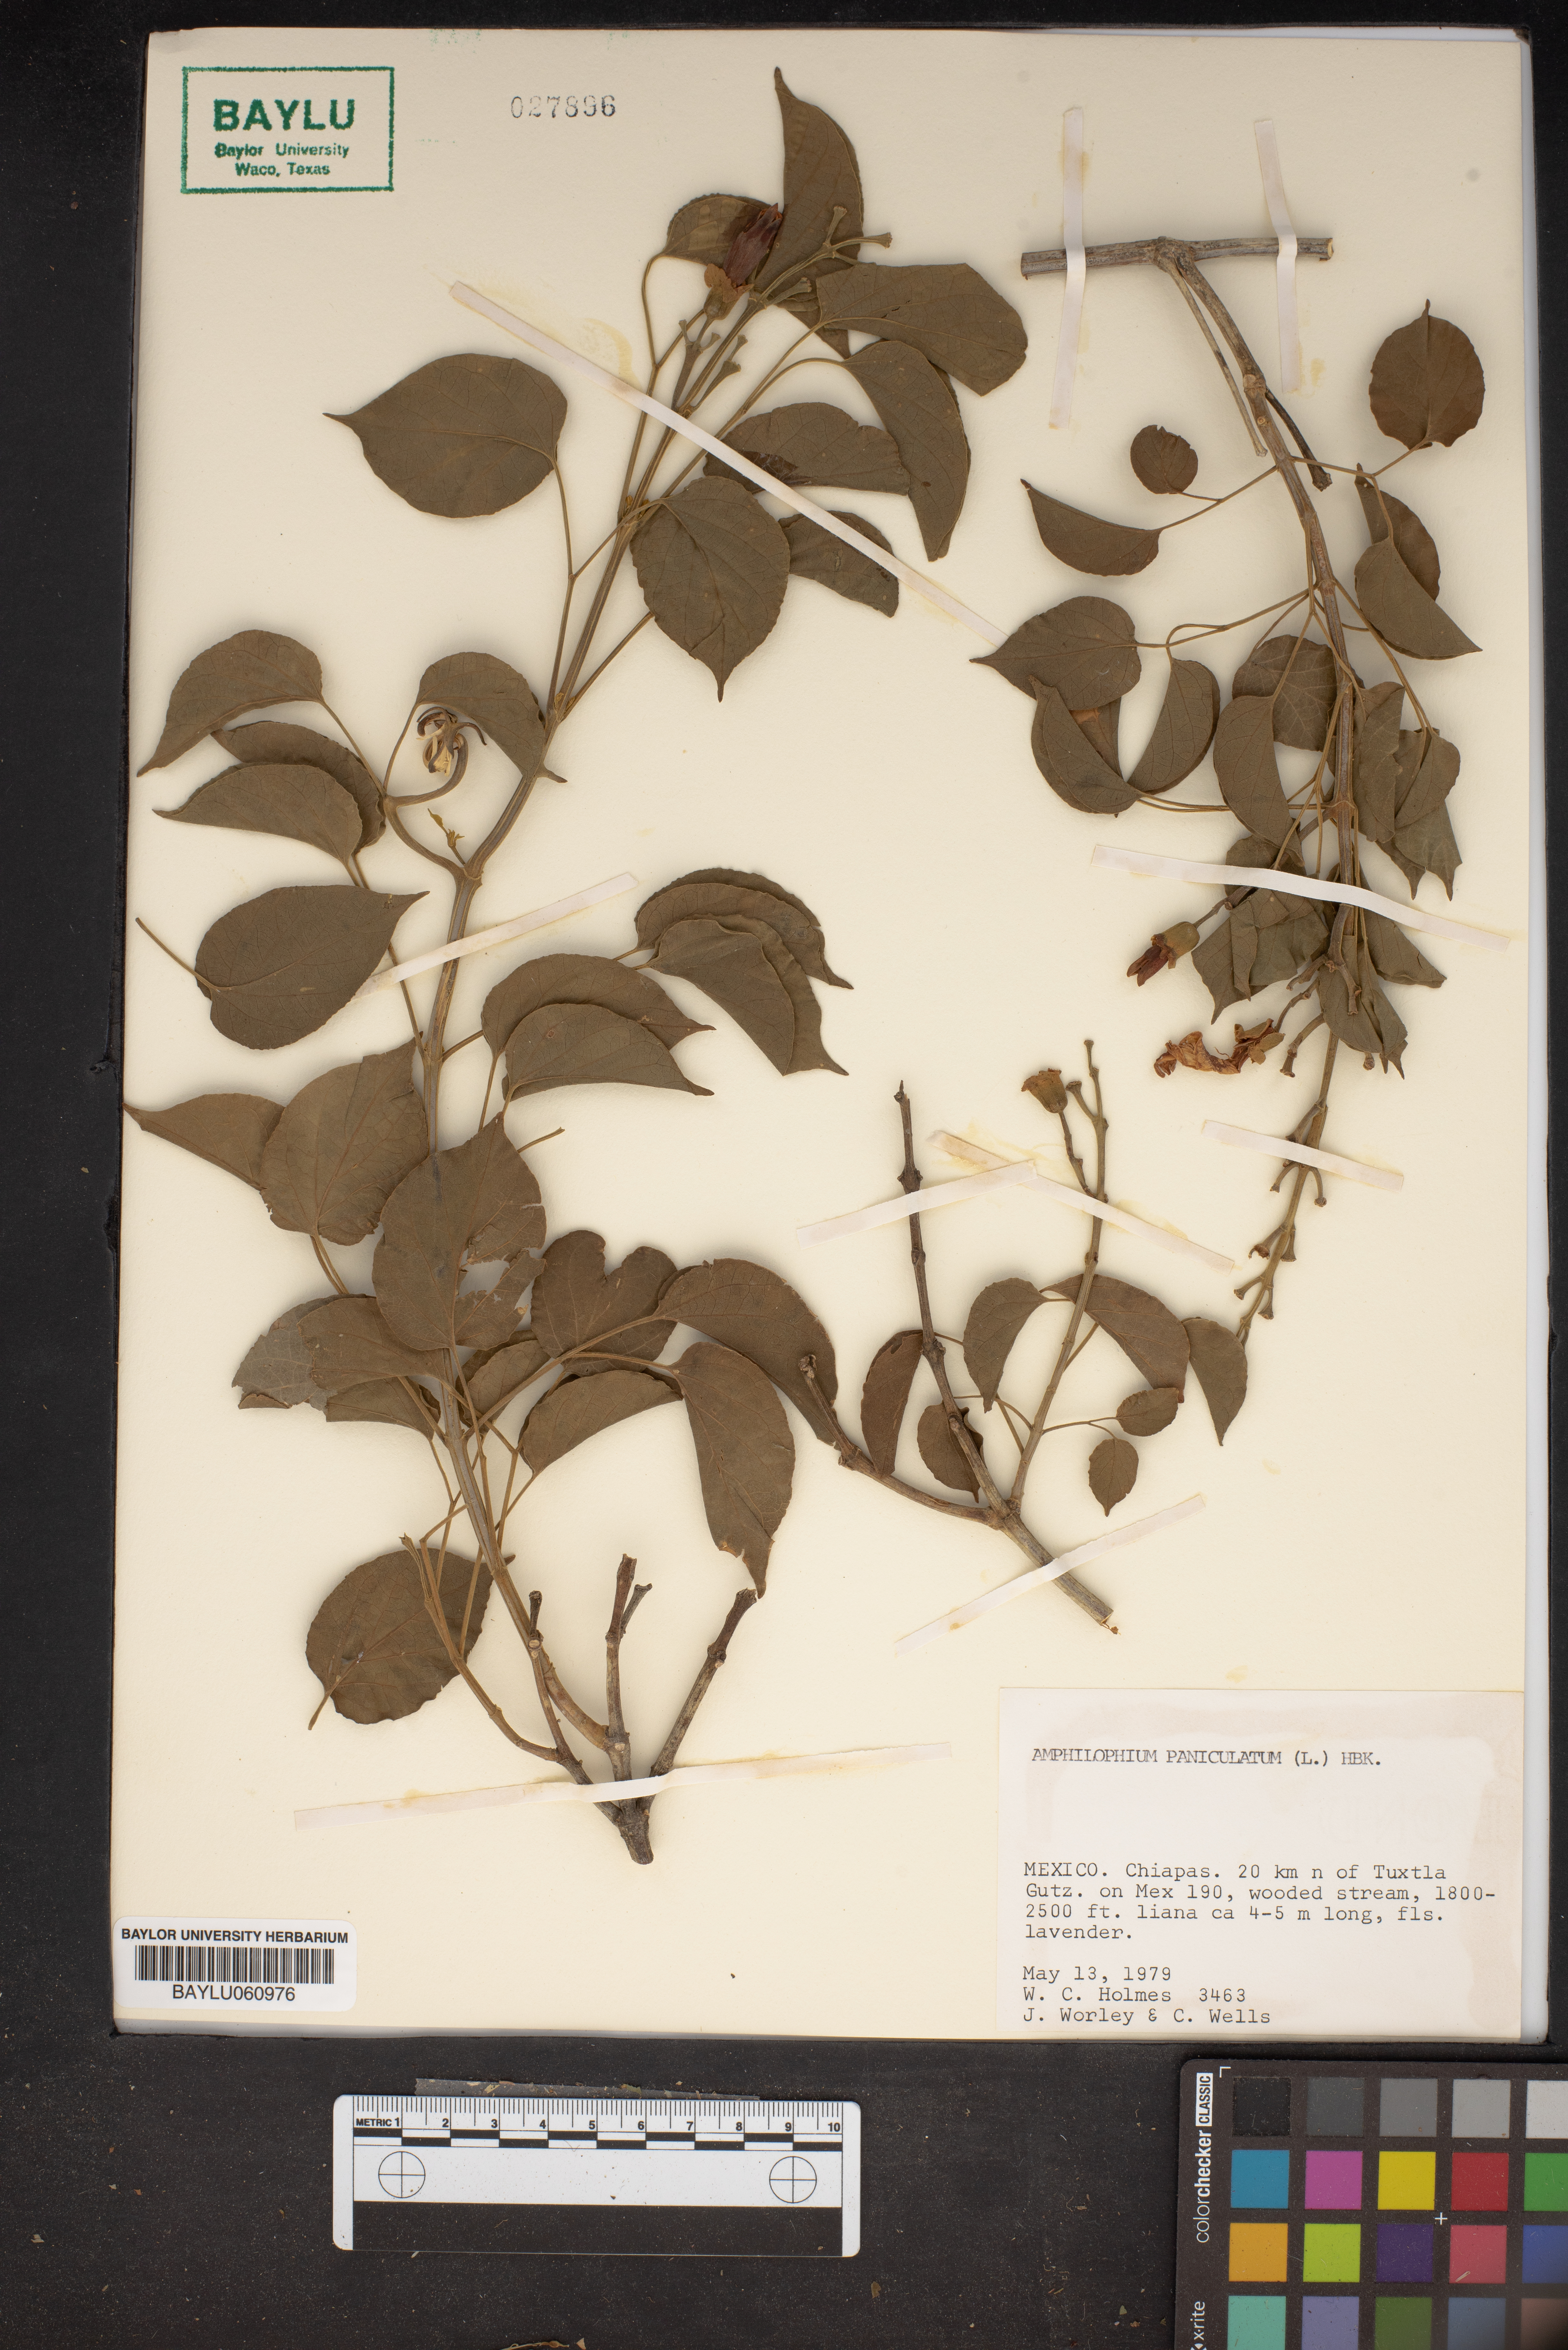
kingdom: Plantae
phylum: Tracheophyta
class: Magnoliopsida
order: Lamiales
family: Bignoniaceae
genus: Amphilophium
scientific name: Amphilophium paniculatum
